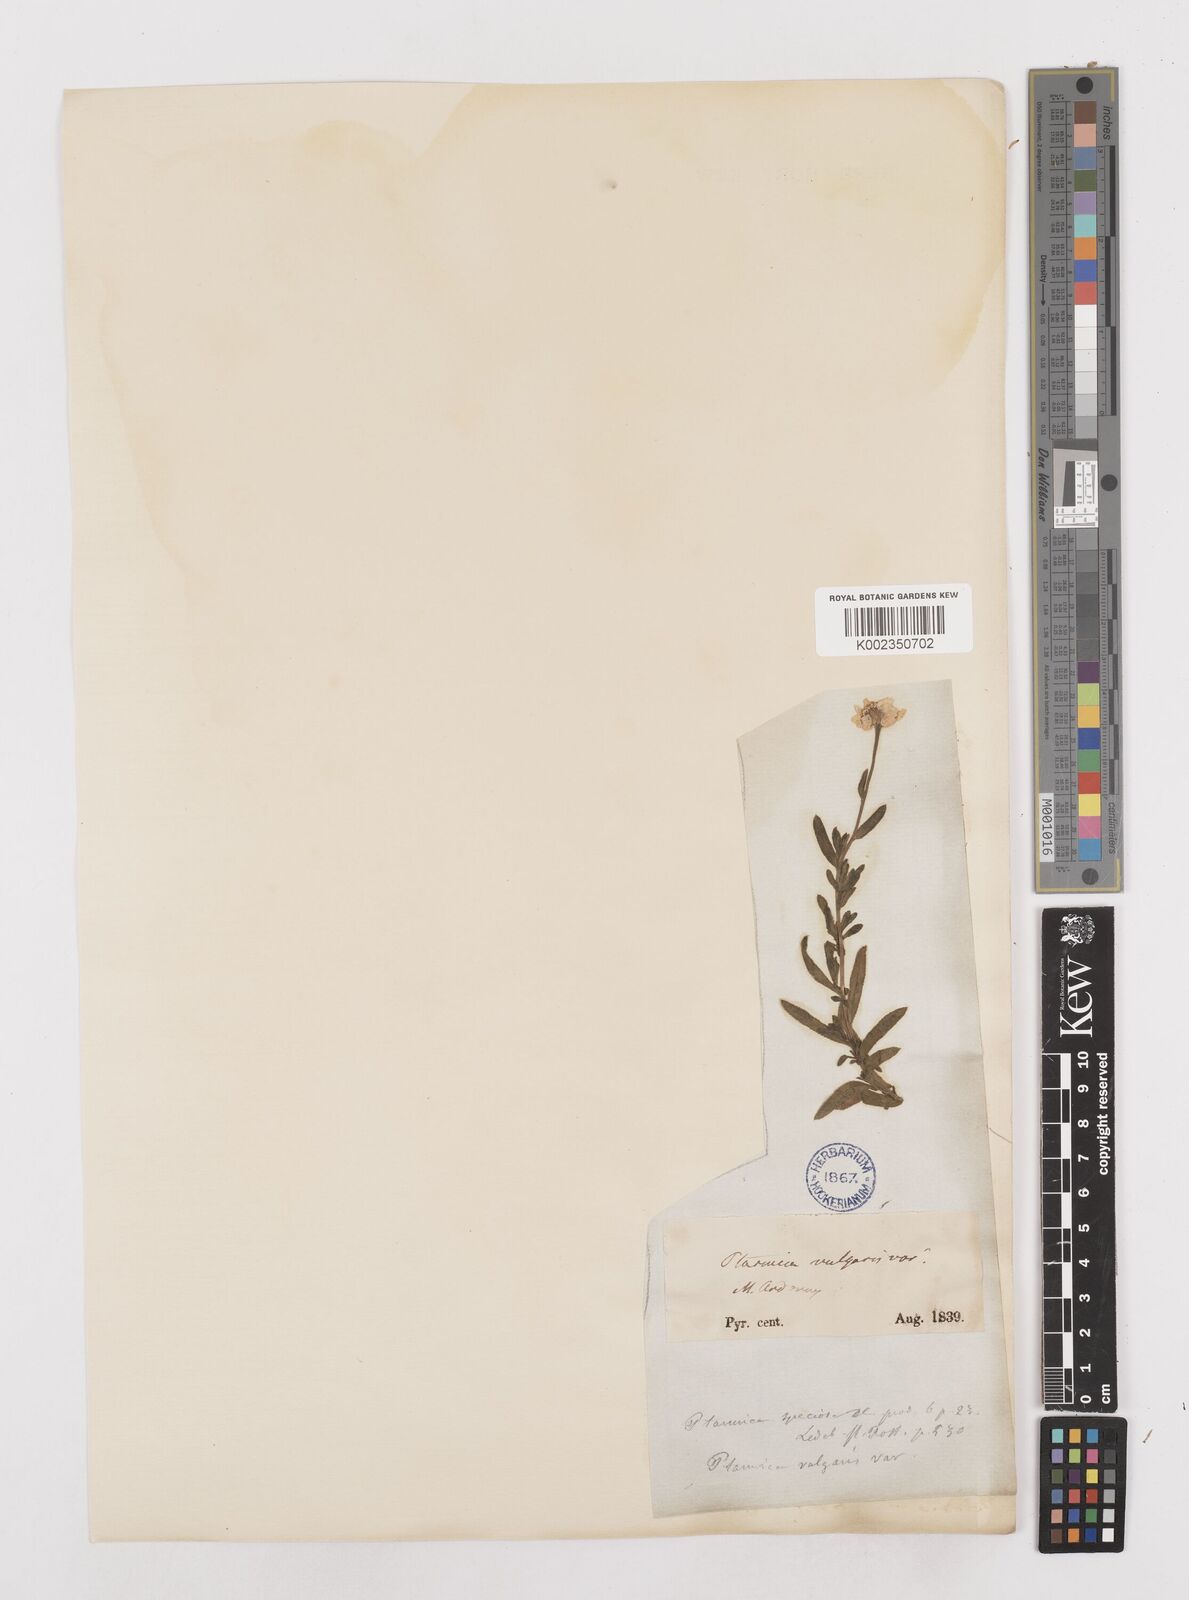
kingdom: Plantae
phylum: Tracheophyta
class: Magnoliopsida
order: Asterales
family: Asteraceae
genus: Achillea
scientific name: Achillea pyrenaica
